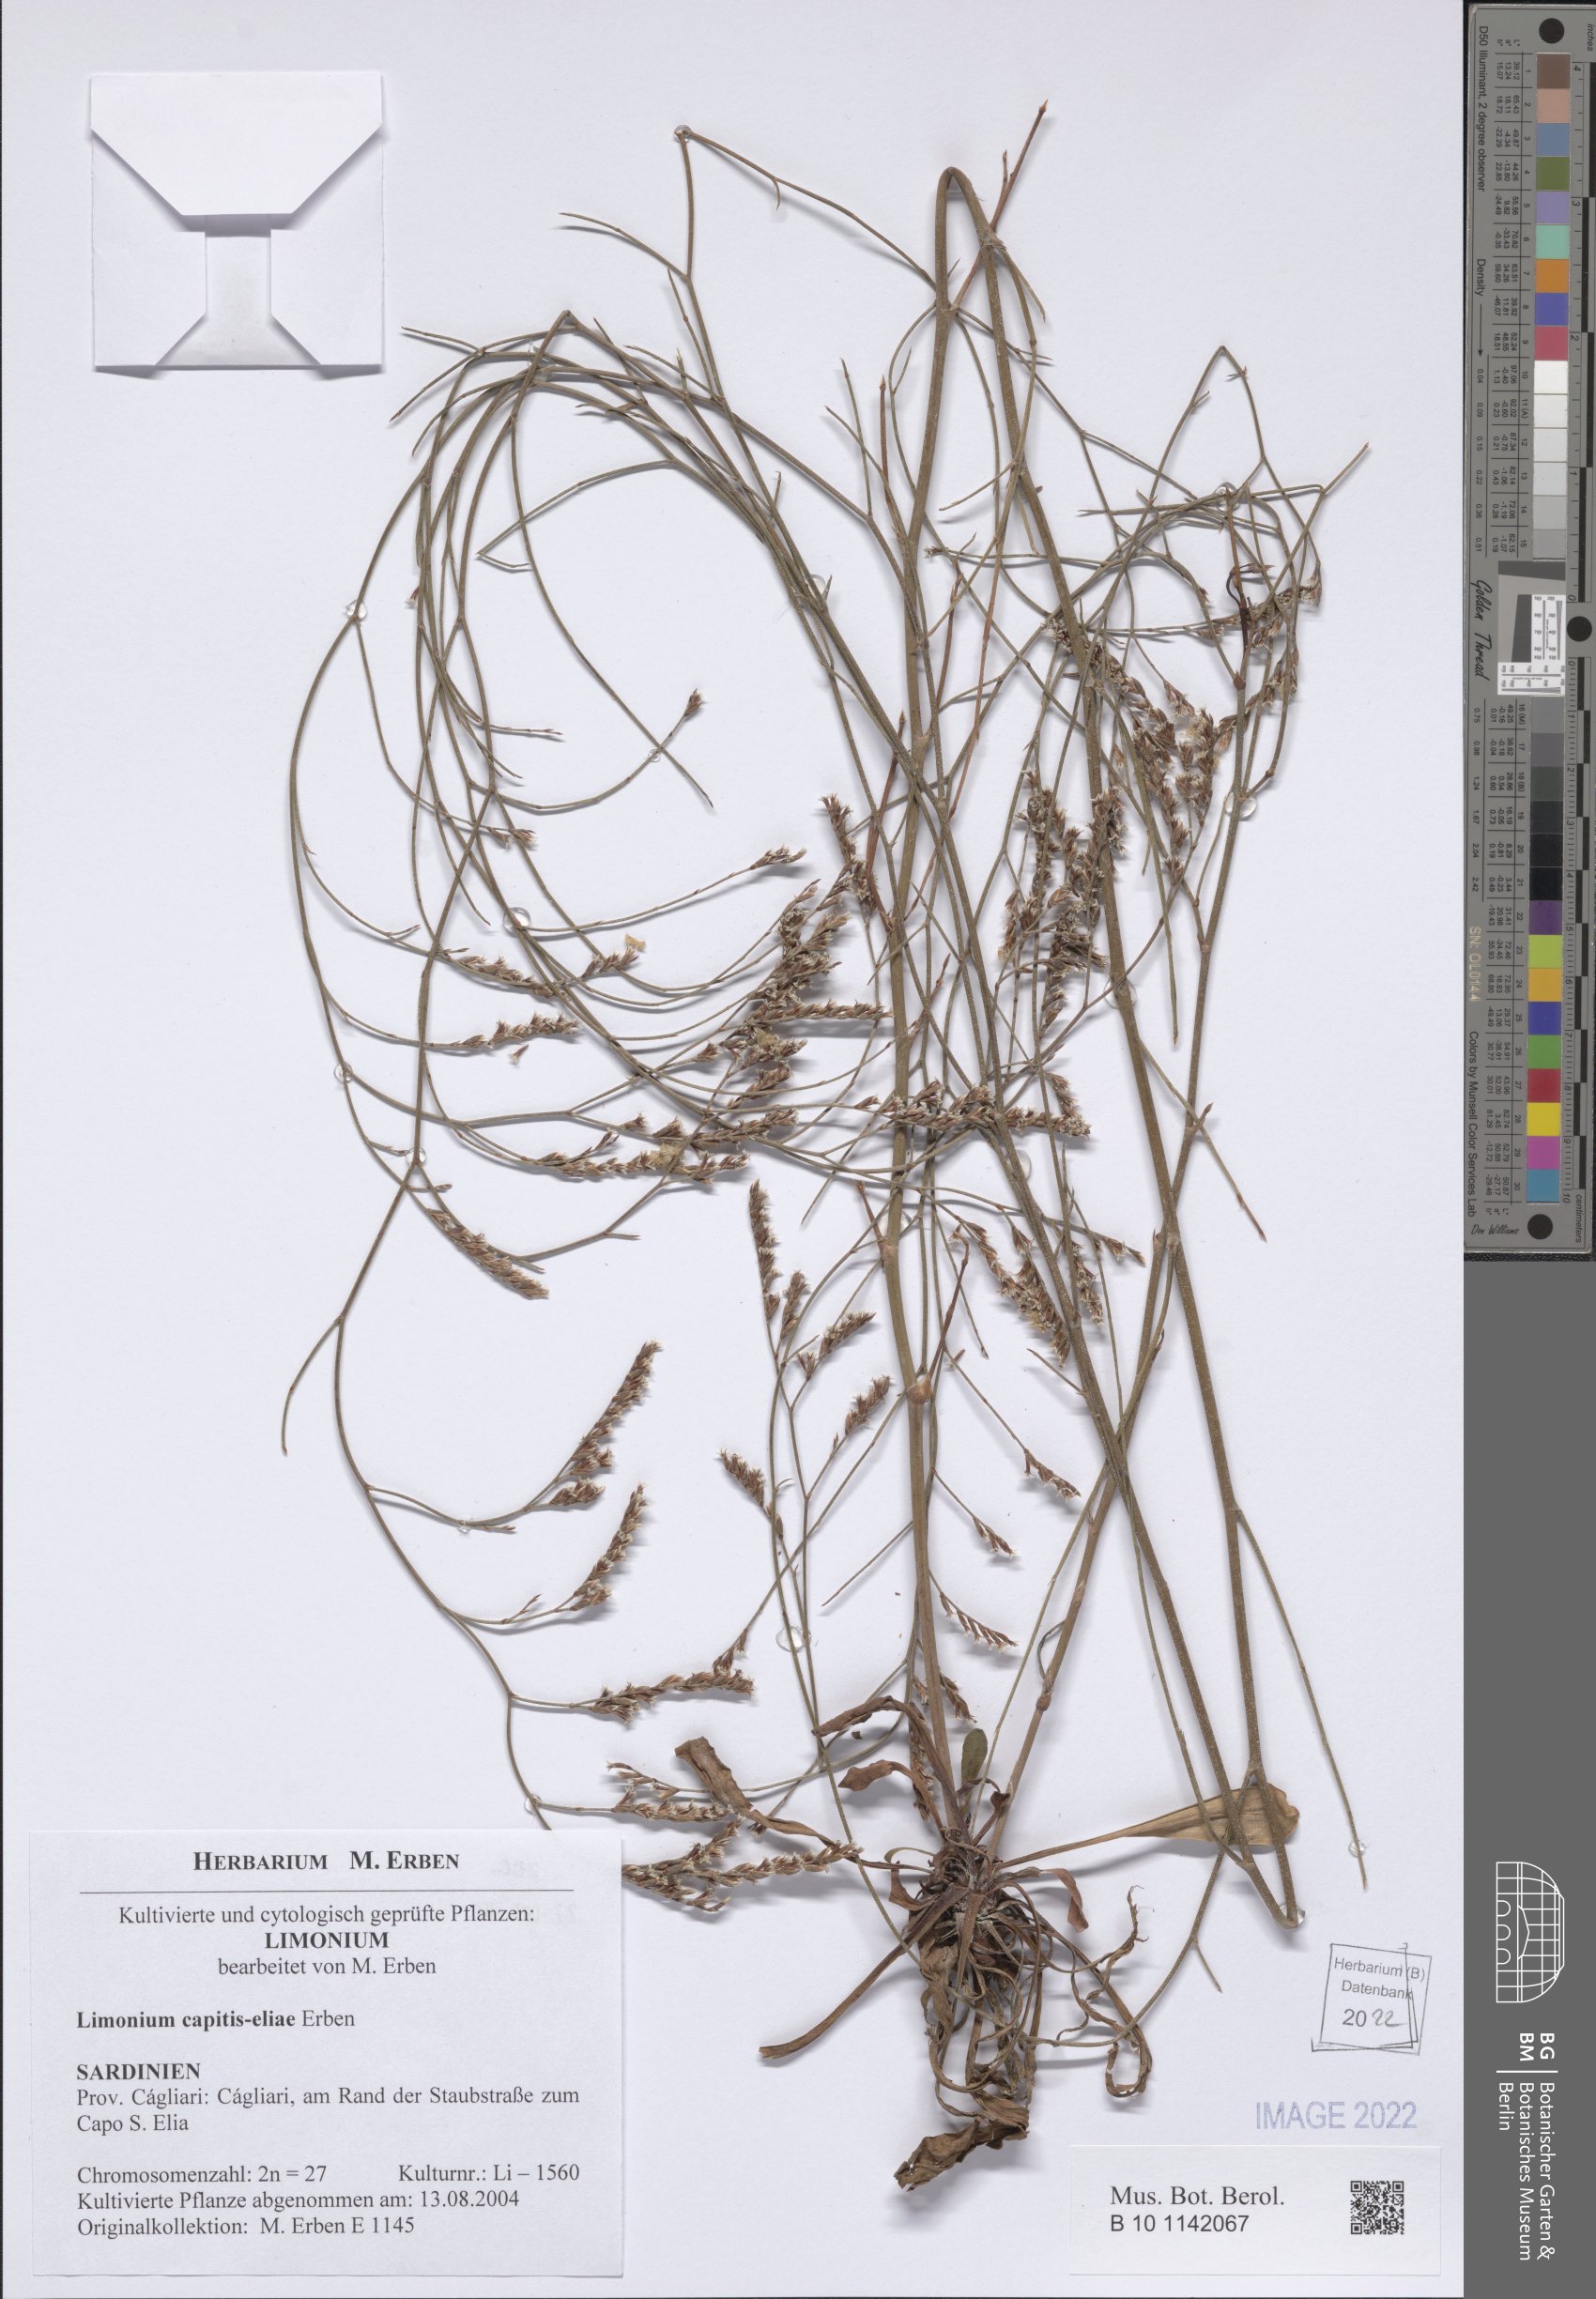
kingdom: Plantae
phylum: Tracheophyta
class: Magnoliopsida
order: Caryophyllales
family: Plumbaginaceae
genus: Limonium
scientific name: Limonium capitis-eliae
